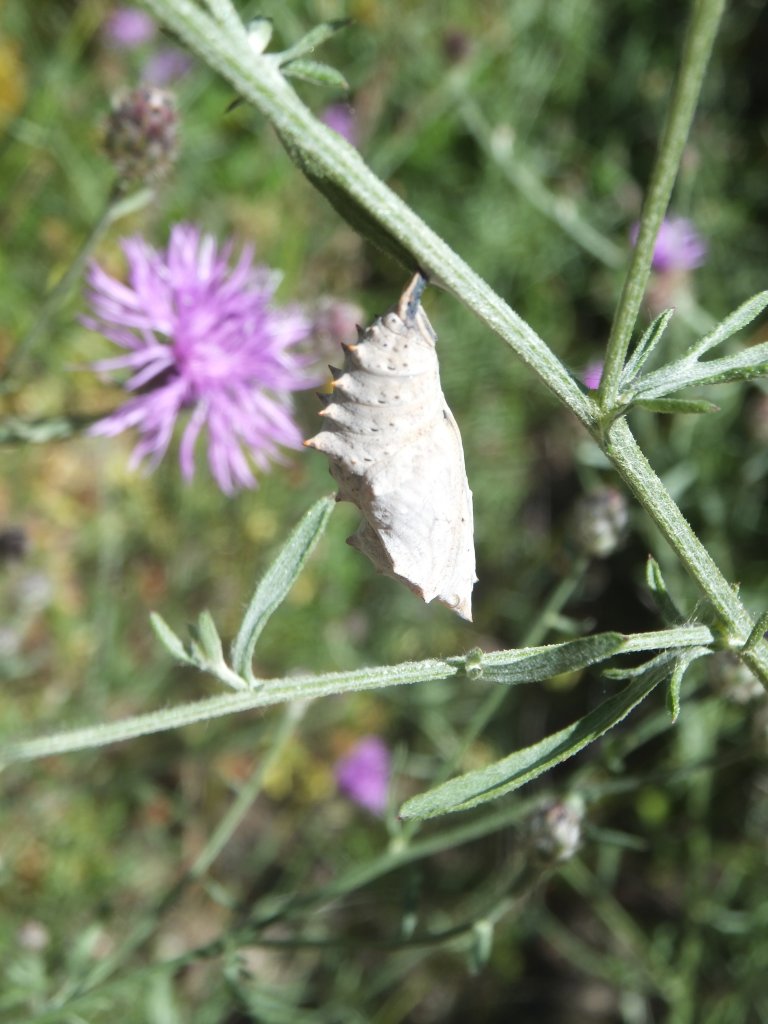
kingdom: Animalia
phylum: Arthropoda
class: Insecta
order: Lepidoptera
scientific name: Lepidoptera
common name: Butterflies
